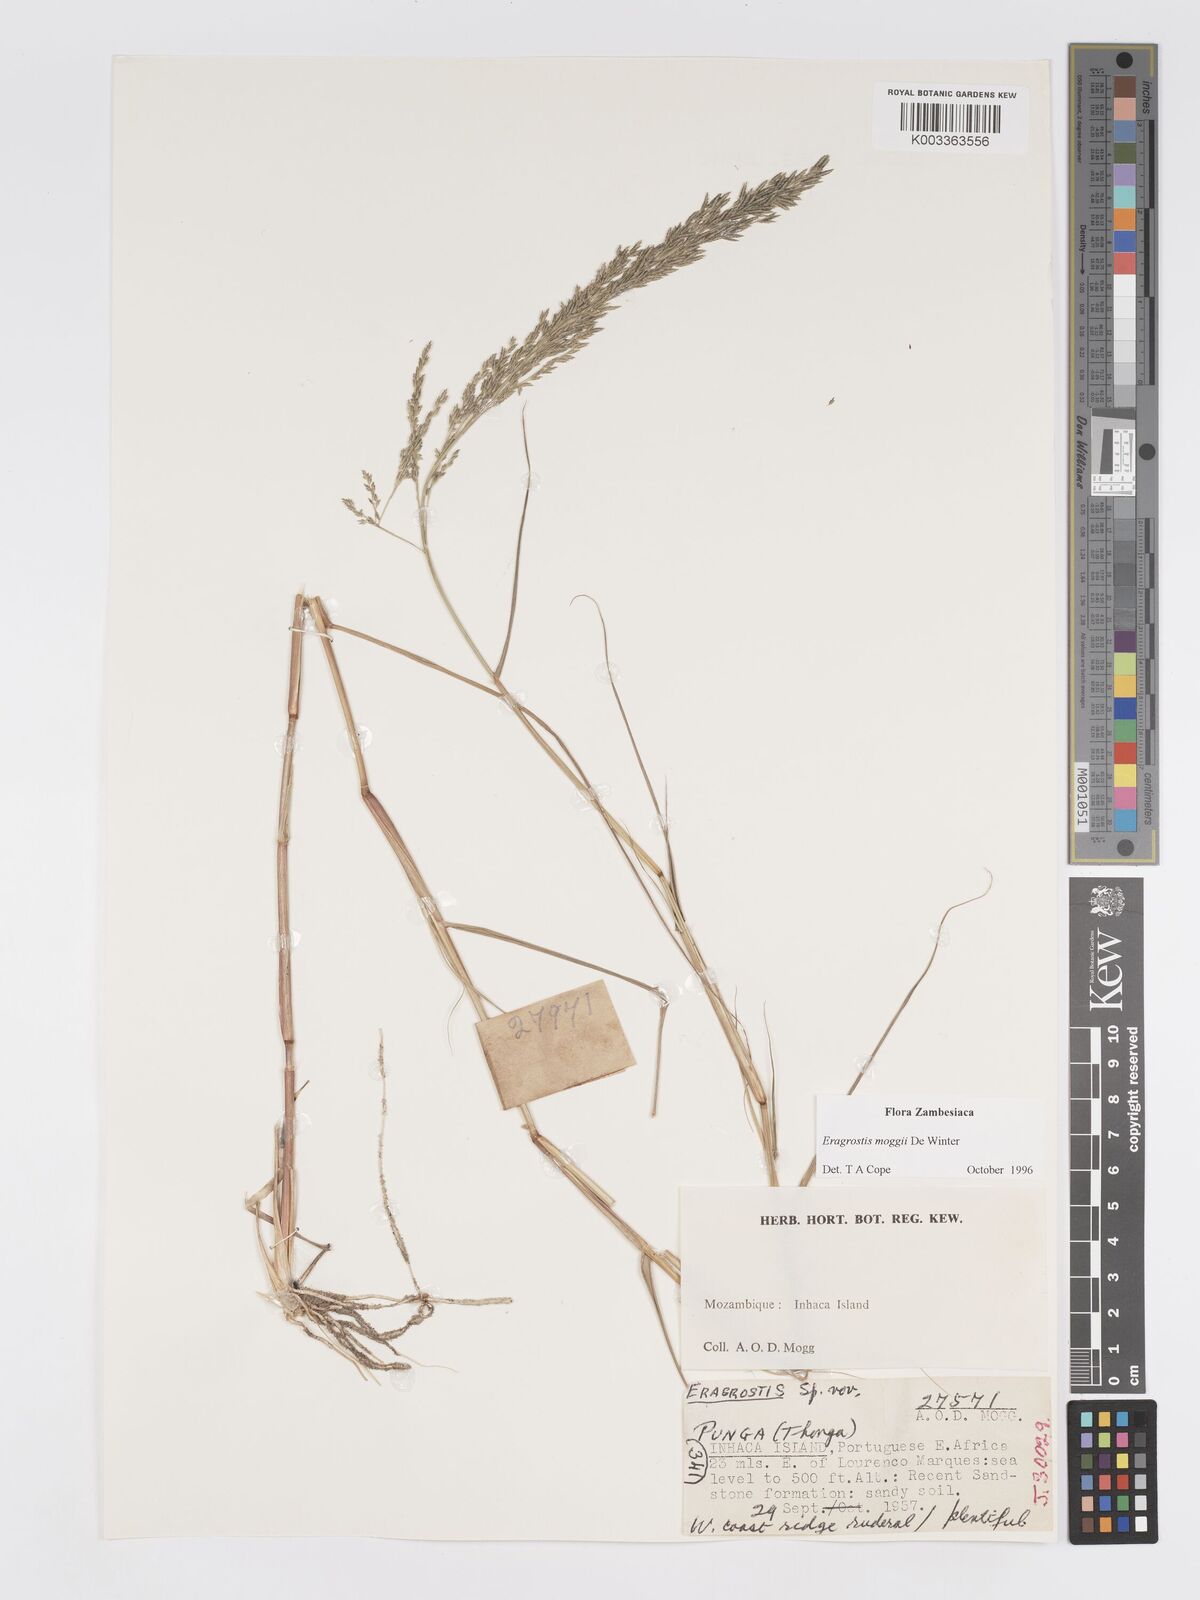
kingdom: Plantae
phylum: Tracheophyta
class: Liliopsida
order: Poales
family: Poaceae
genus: Eragrostis
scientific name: Eragrostis moggii
